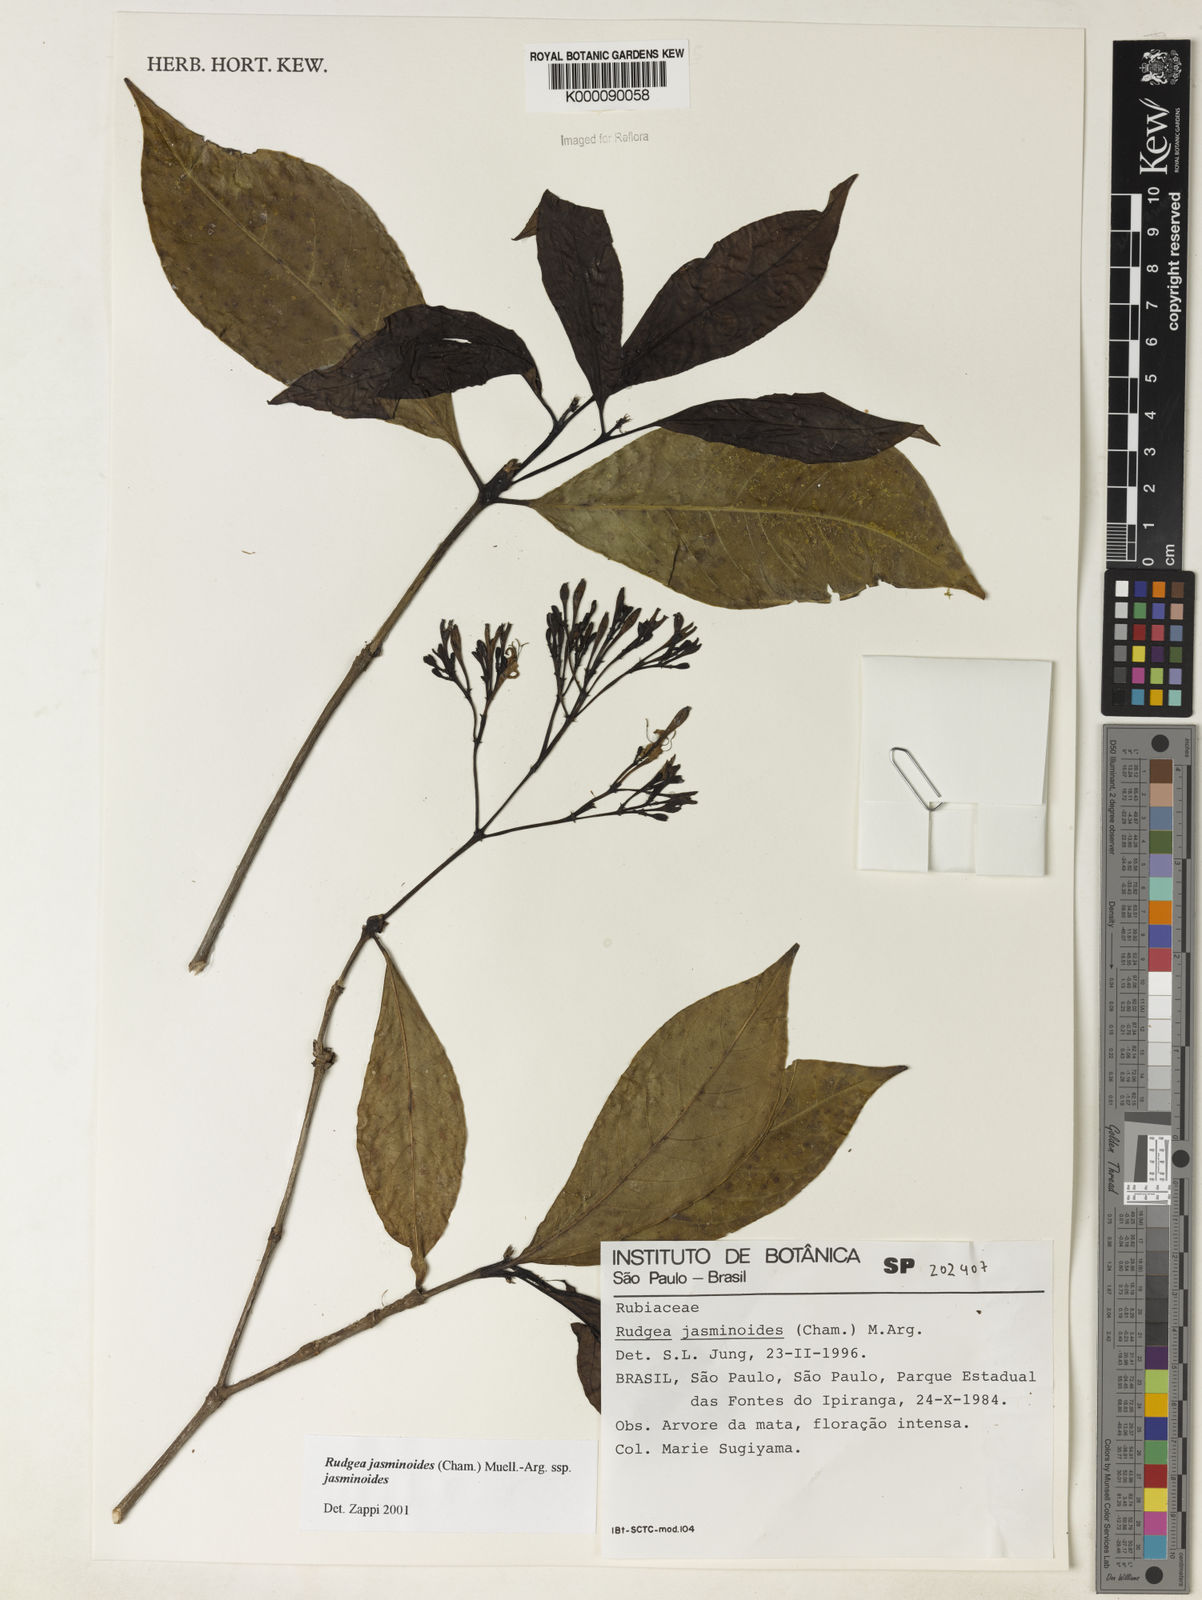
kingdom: Plantae
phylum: Tracheophyta
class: Magnoliopsida
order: Gentianales
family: Rubiaceae
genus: Rudgea
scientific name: Rudgea jasminoides
